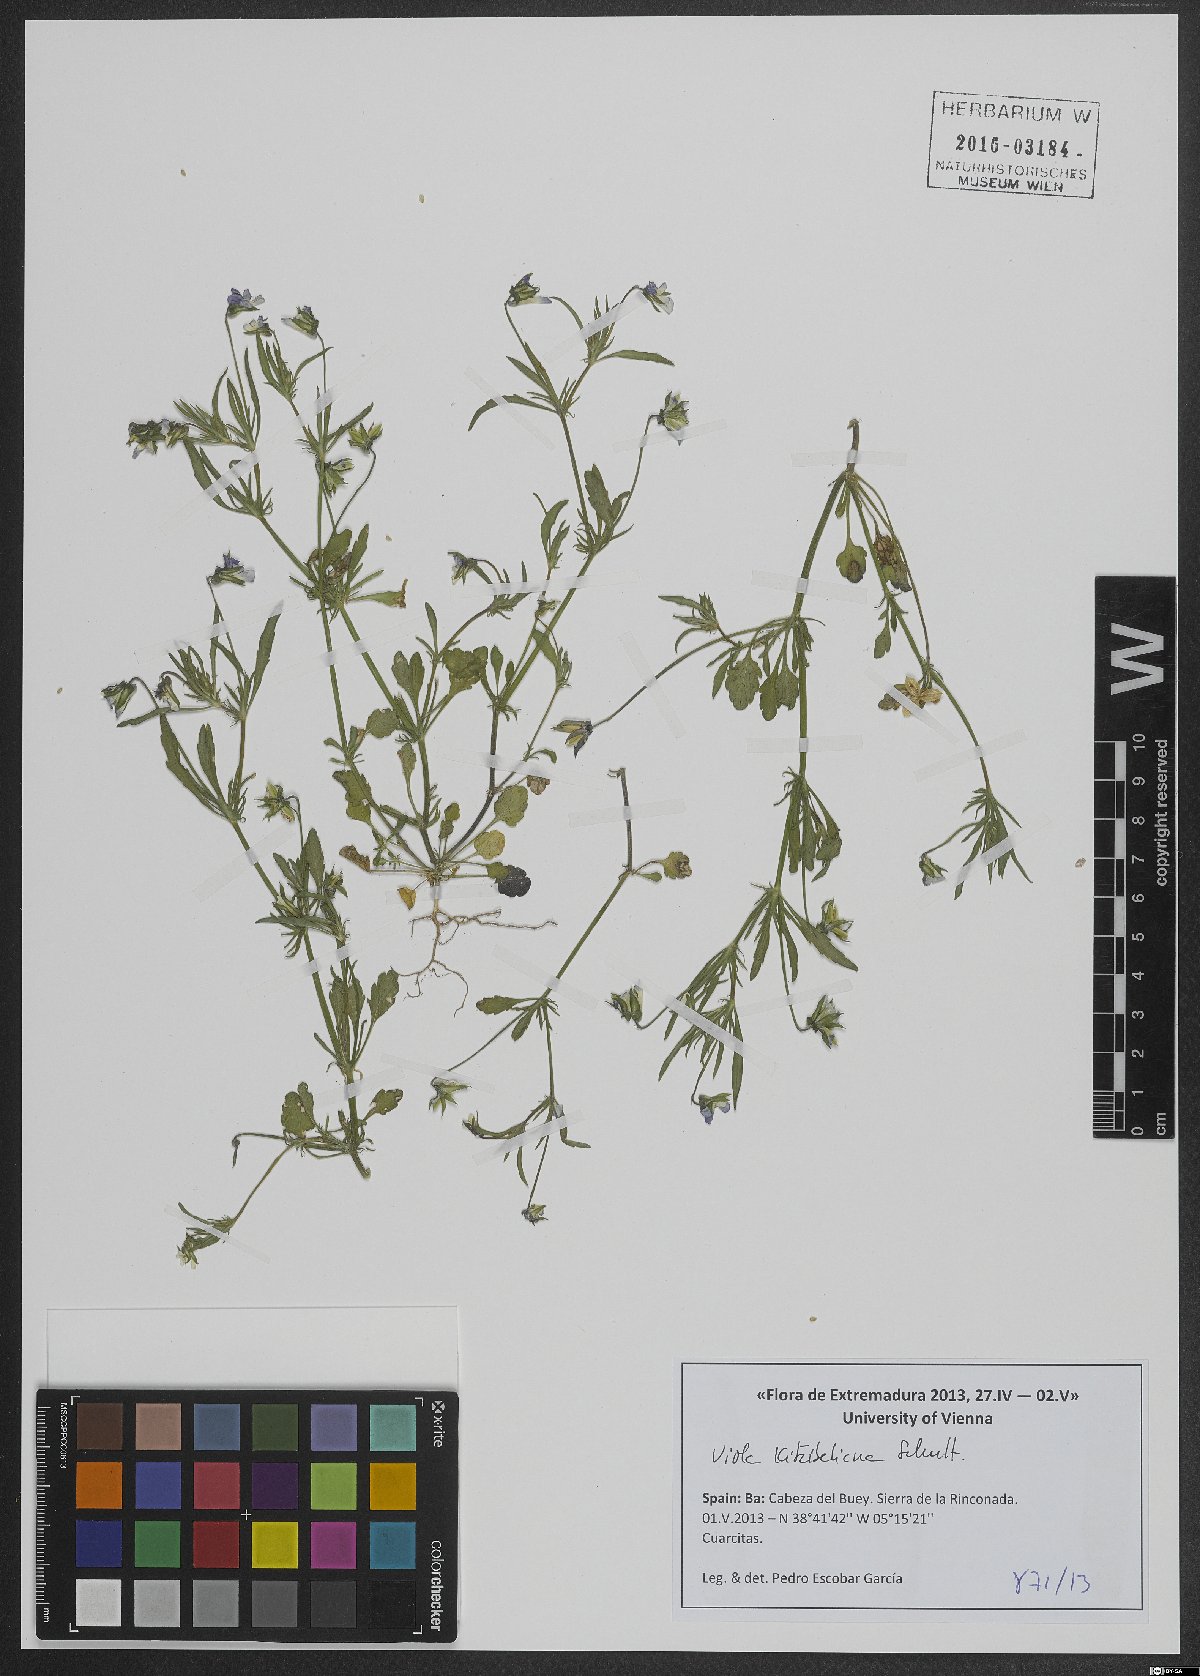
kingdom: Plantae
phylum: Tracheophyta
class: Magnoliopsida
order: Malpighiales
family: Violaceae
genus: Viola
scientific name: Viola kitaibeliana
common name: Dwarf pansy
